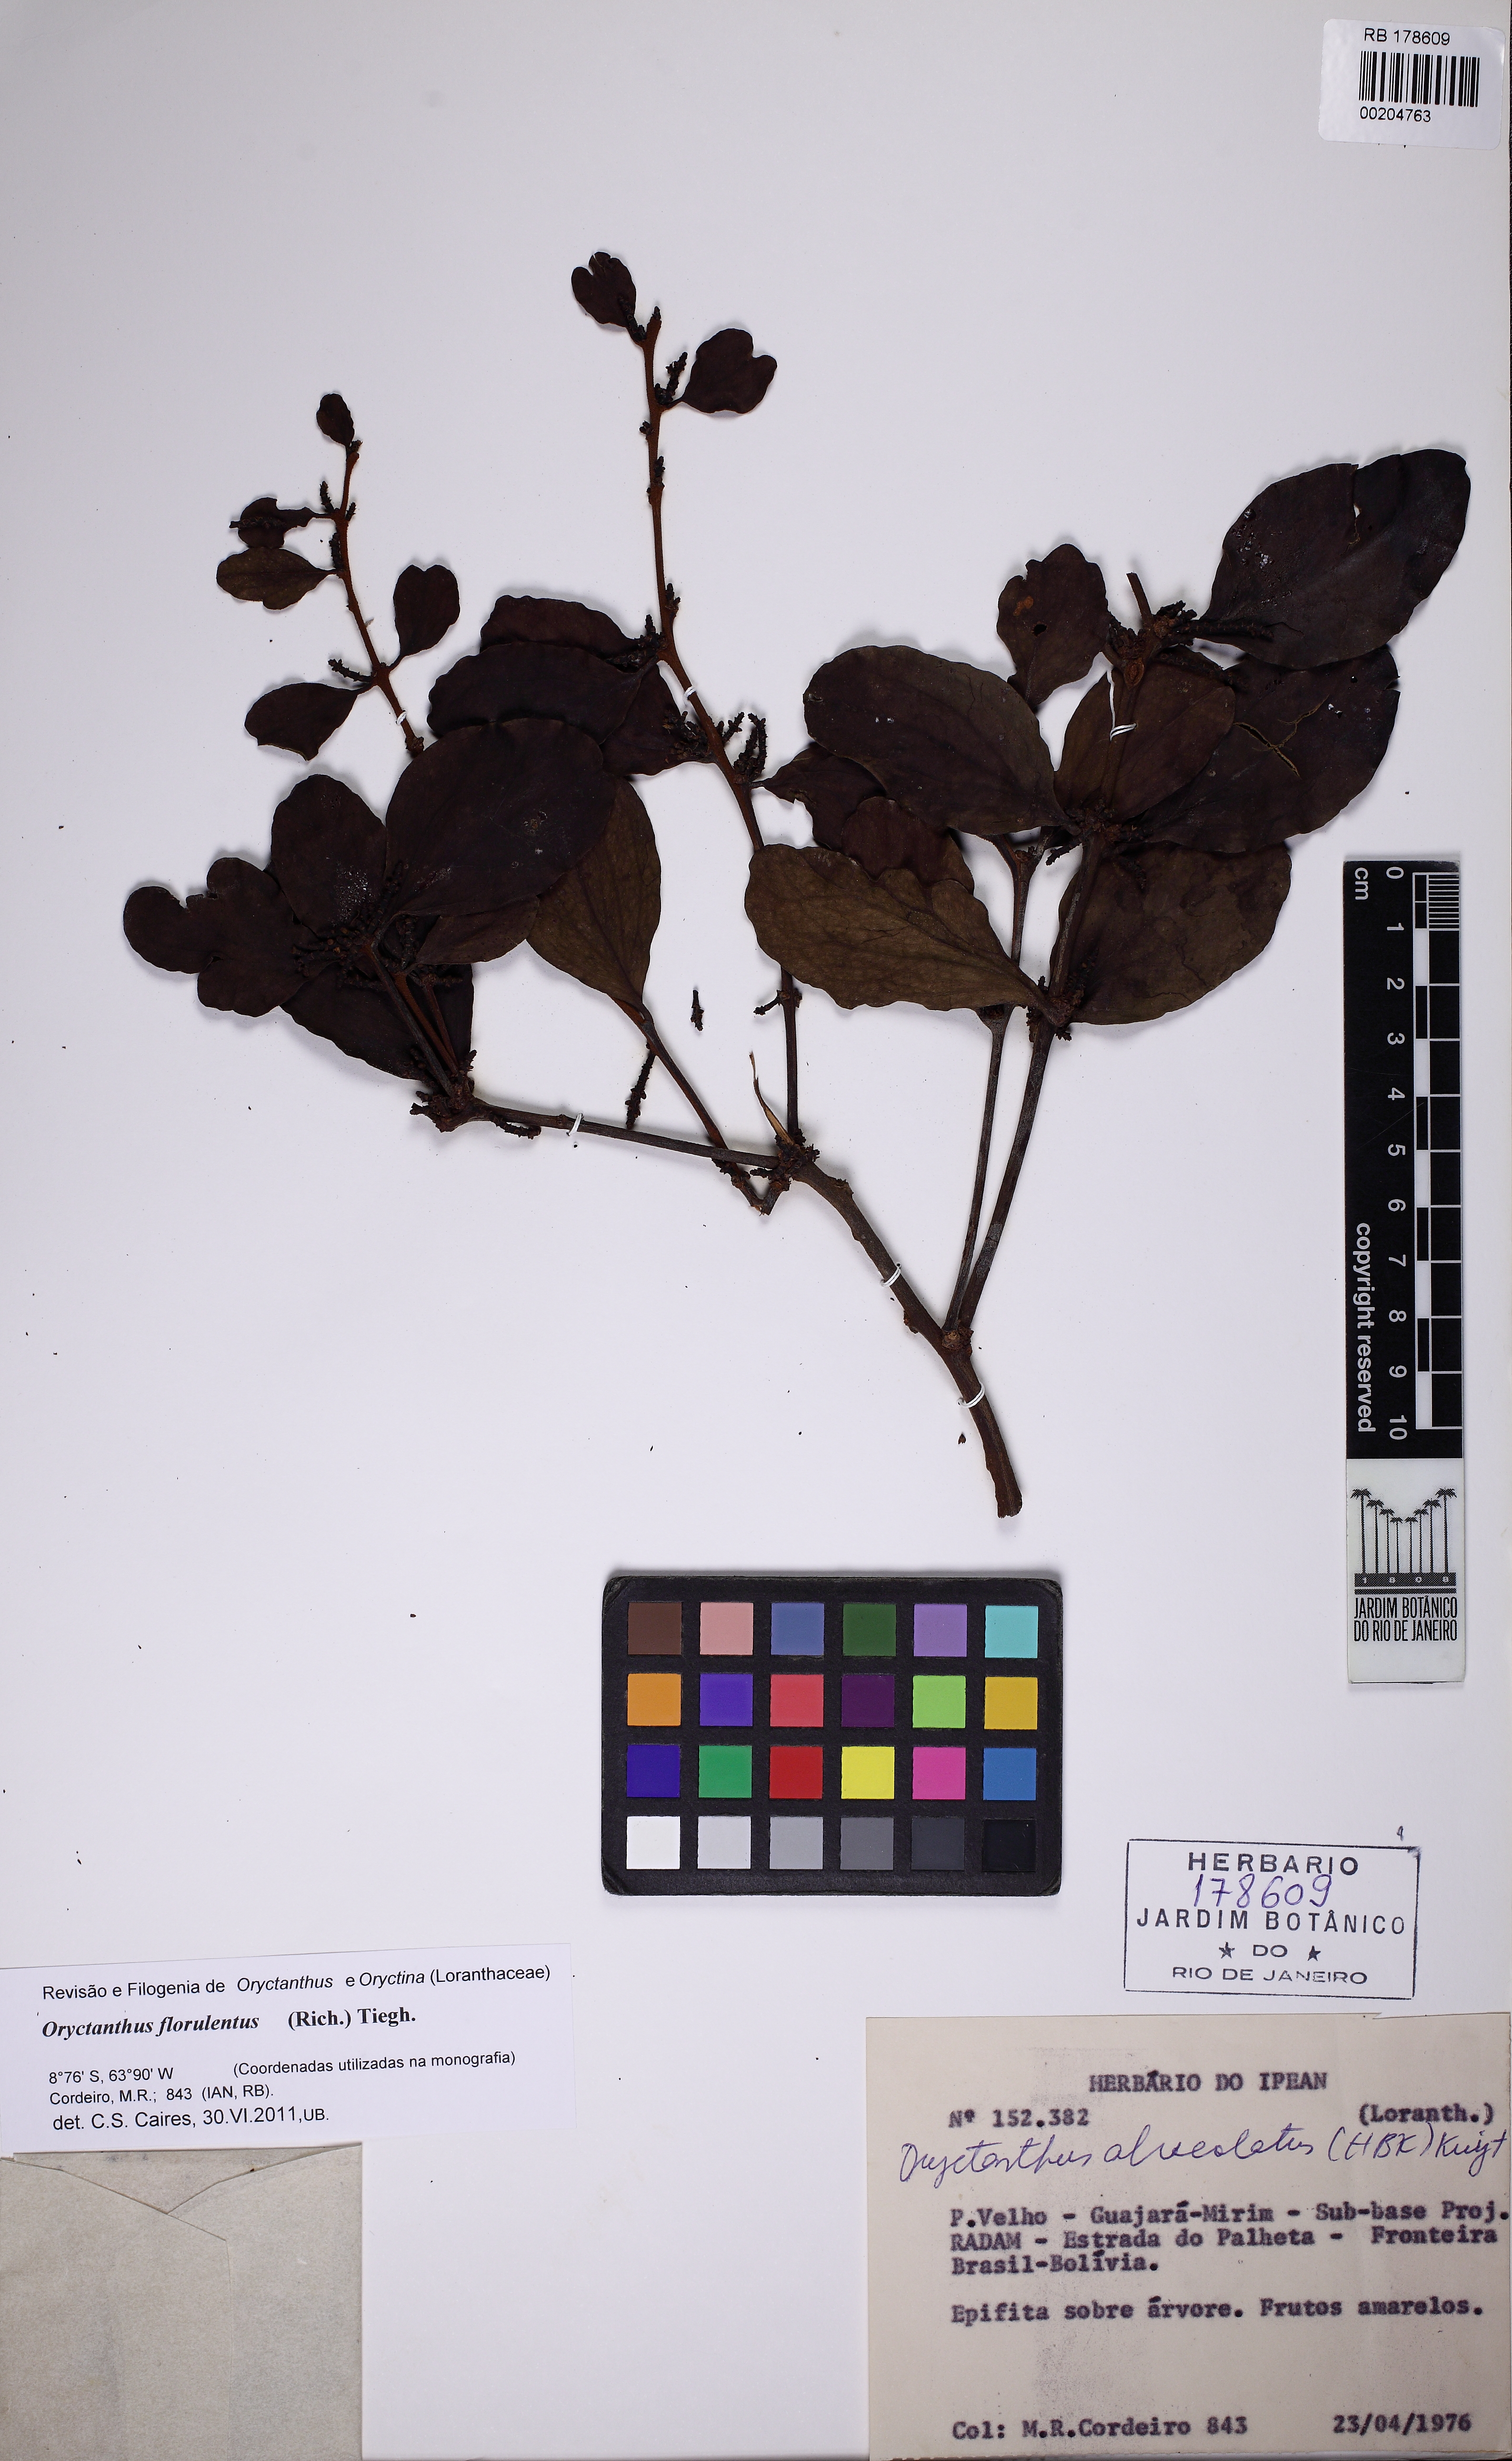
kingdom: Plantae
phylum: Tracheophyta
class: Magnoliopsida
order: Santalales
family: Loranthaceae
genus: Oryctanthus
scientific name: Oryctanthus florulentus
